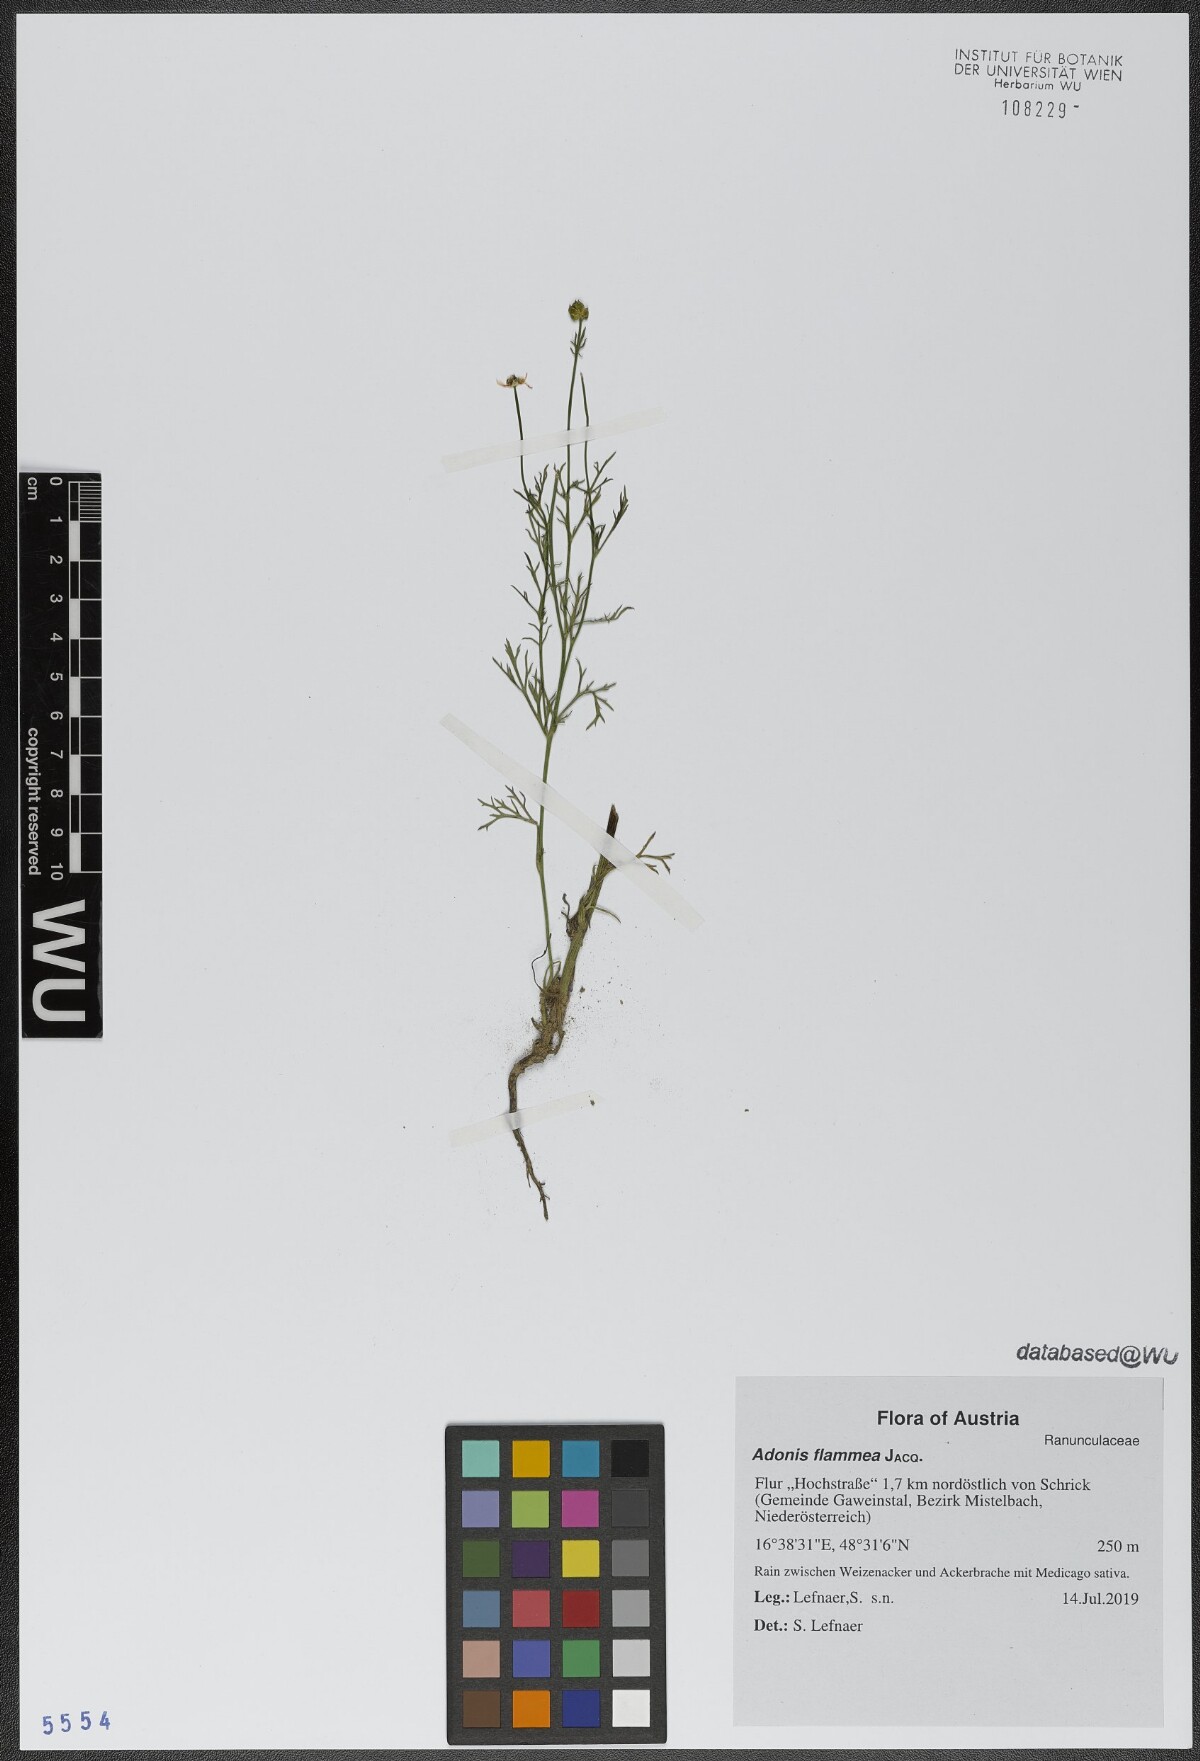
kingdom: Plantae
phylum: Tracheophyta
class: Magnoliopsida
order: Ranunculales
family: Ranunculaceae
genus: Adonis
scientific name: Adonis flammea
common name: Large pheasant's-eye
